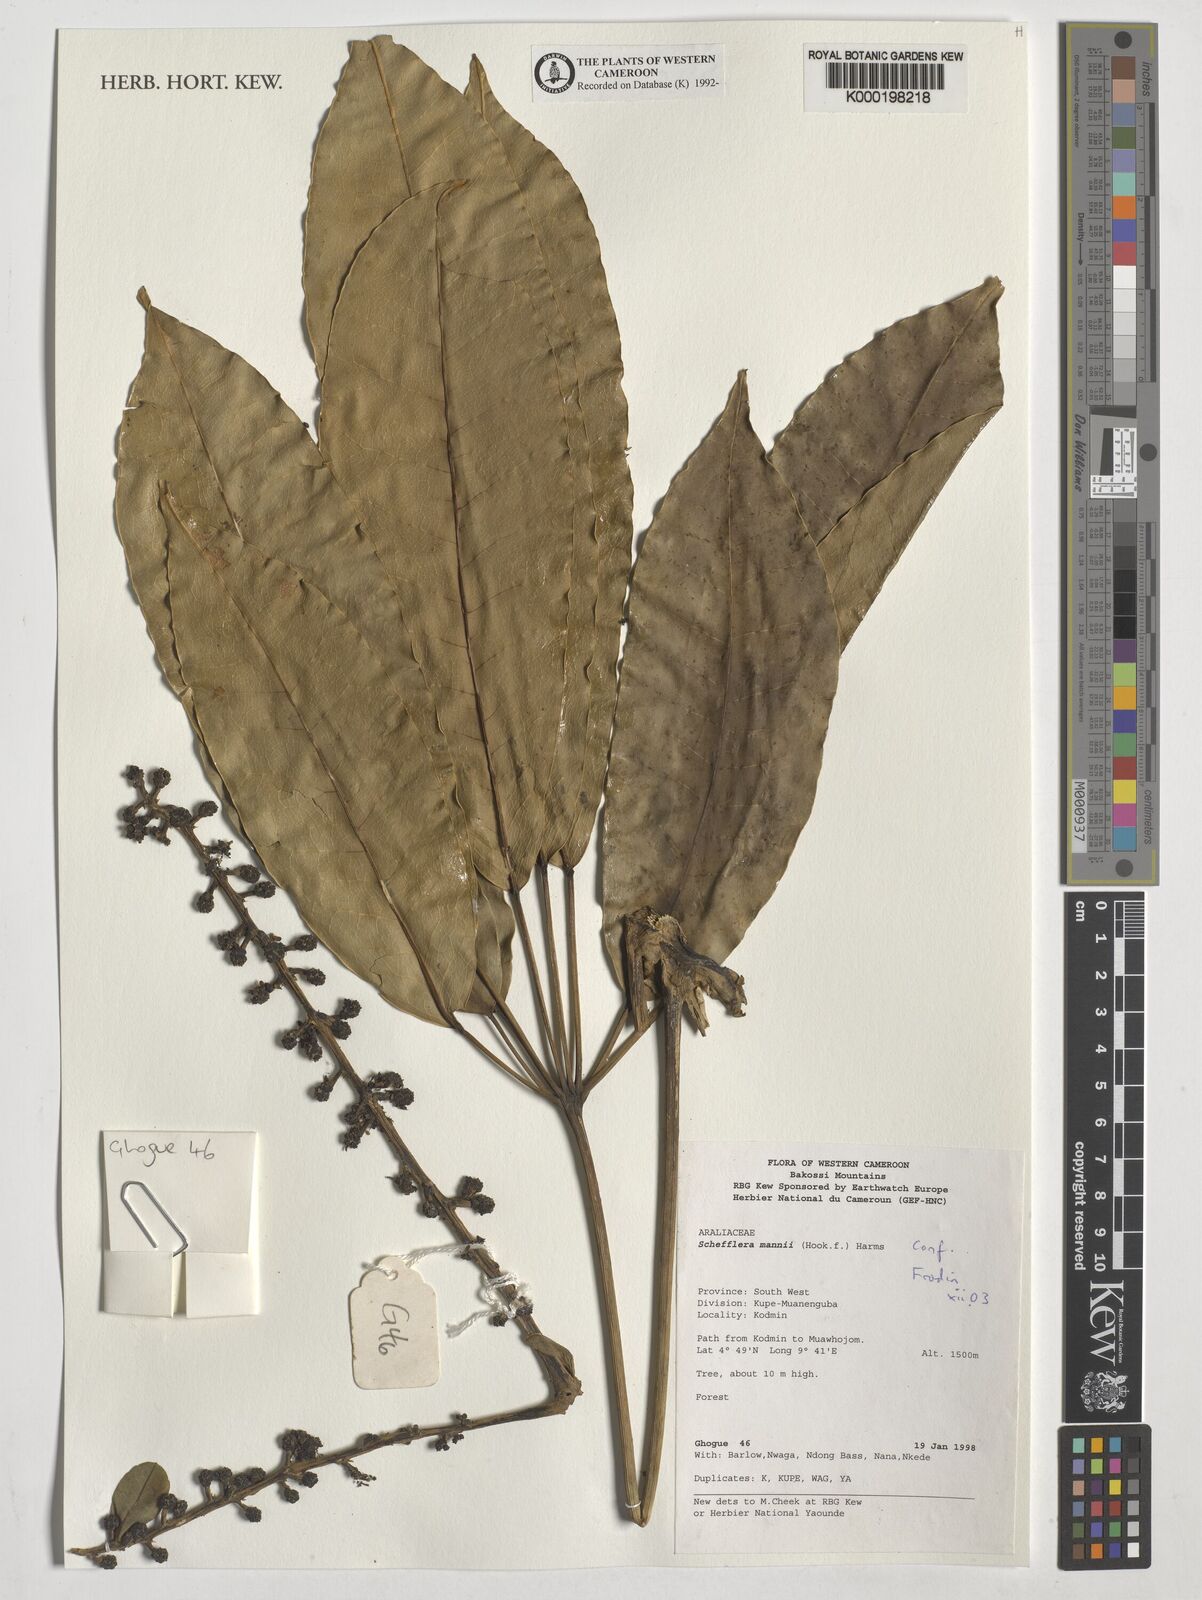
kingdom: Plantae
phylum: Tracheophyta
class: Magnoliopsida
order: Apiales
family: Araliaceae
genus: Astropanax
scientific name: Astropanax mannii
